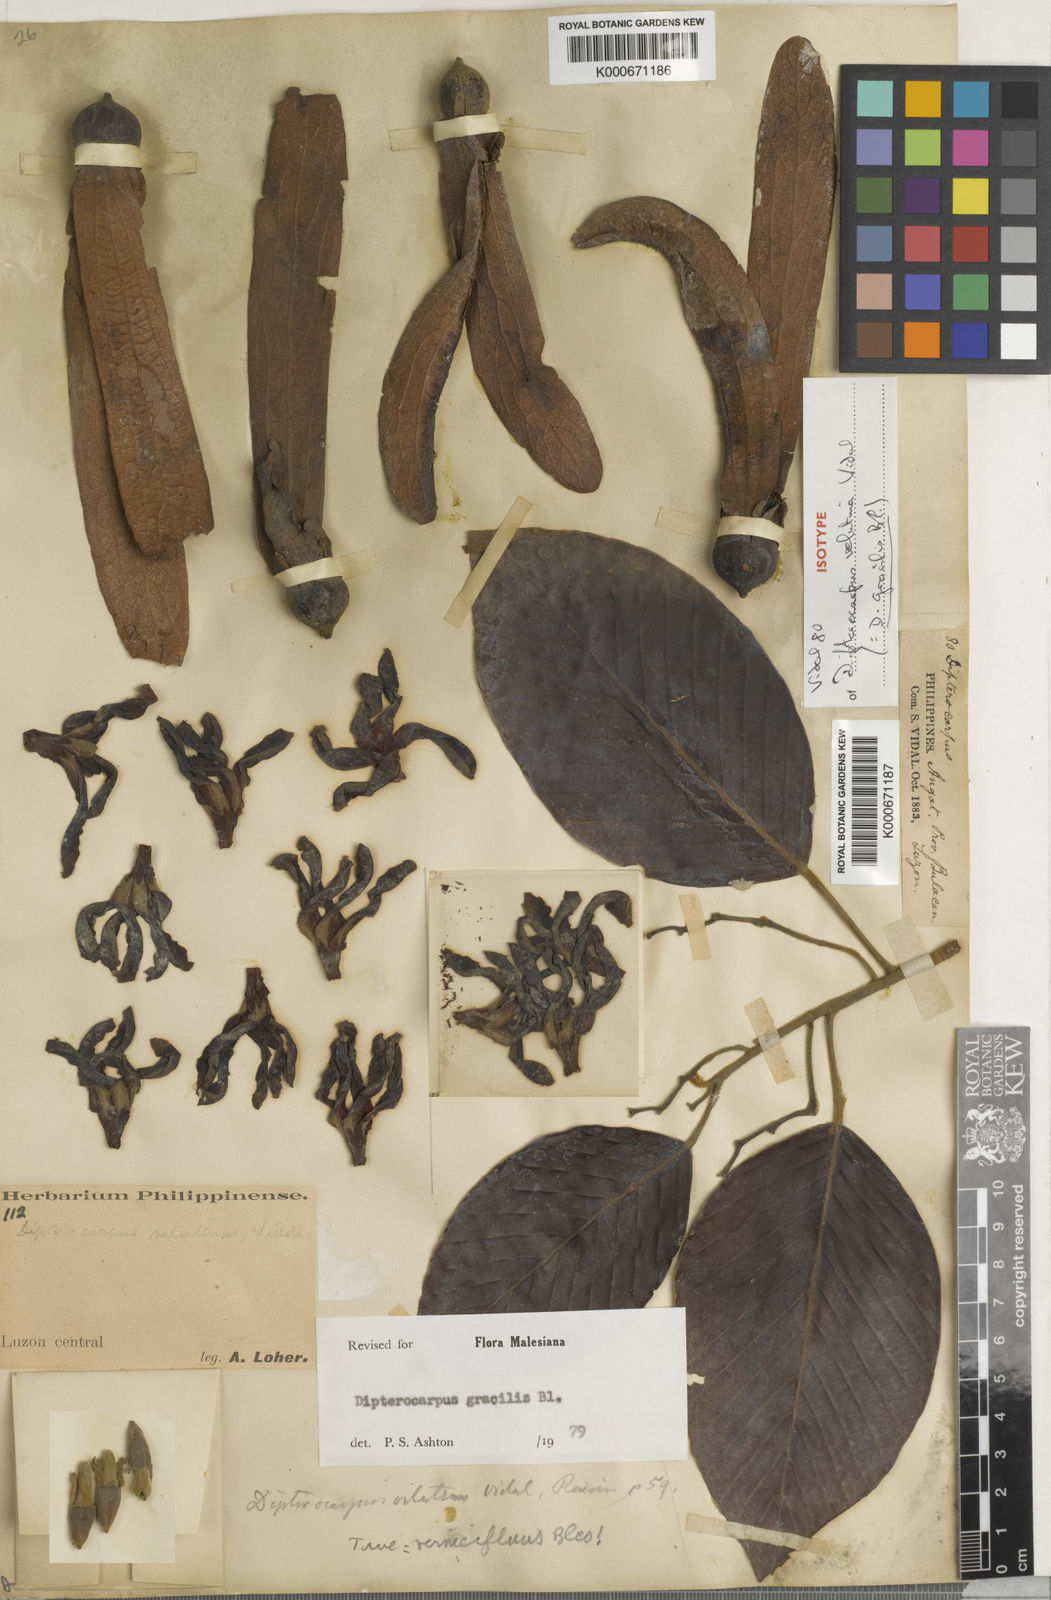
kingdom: Plantae
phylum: Tracheophyta
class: Magnoliopsida
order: Malvales
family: Dipterocarpaceae
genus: Dipterocarpus
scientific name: Dipterocarpus gracilis
